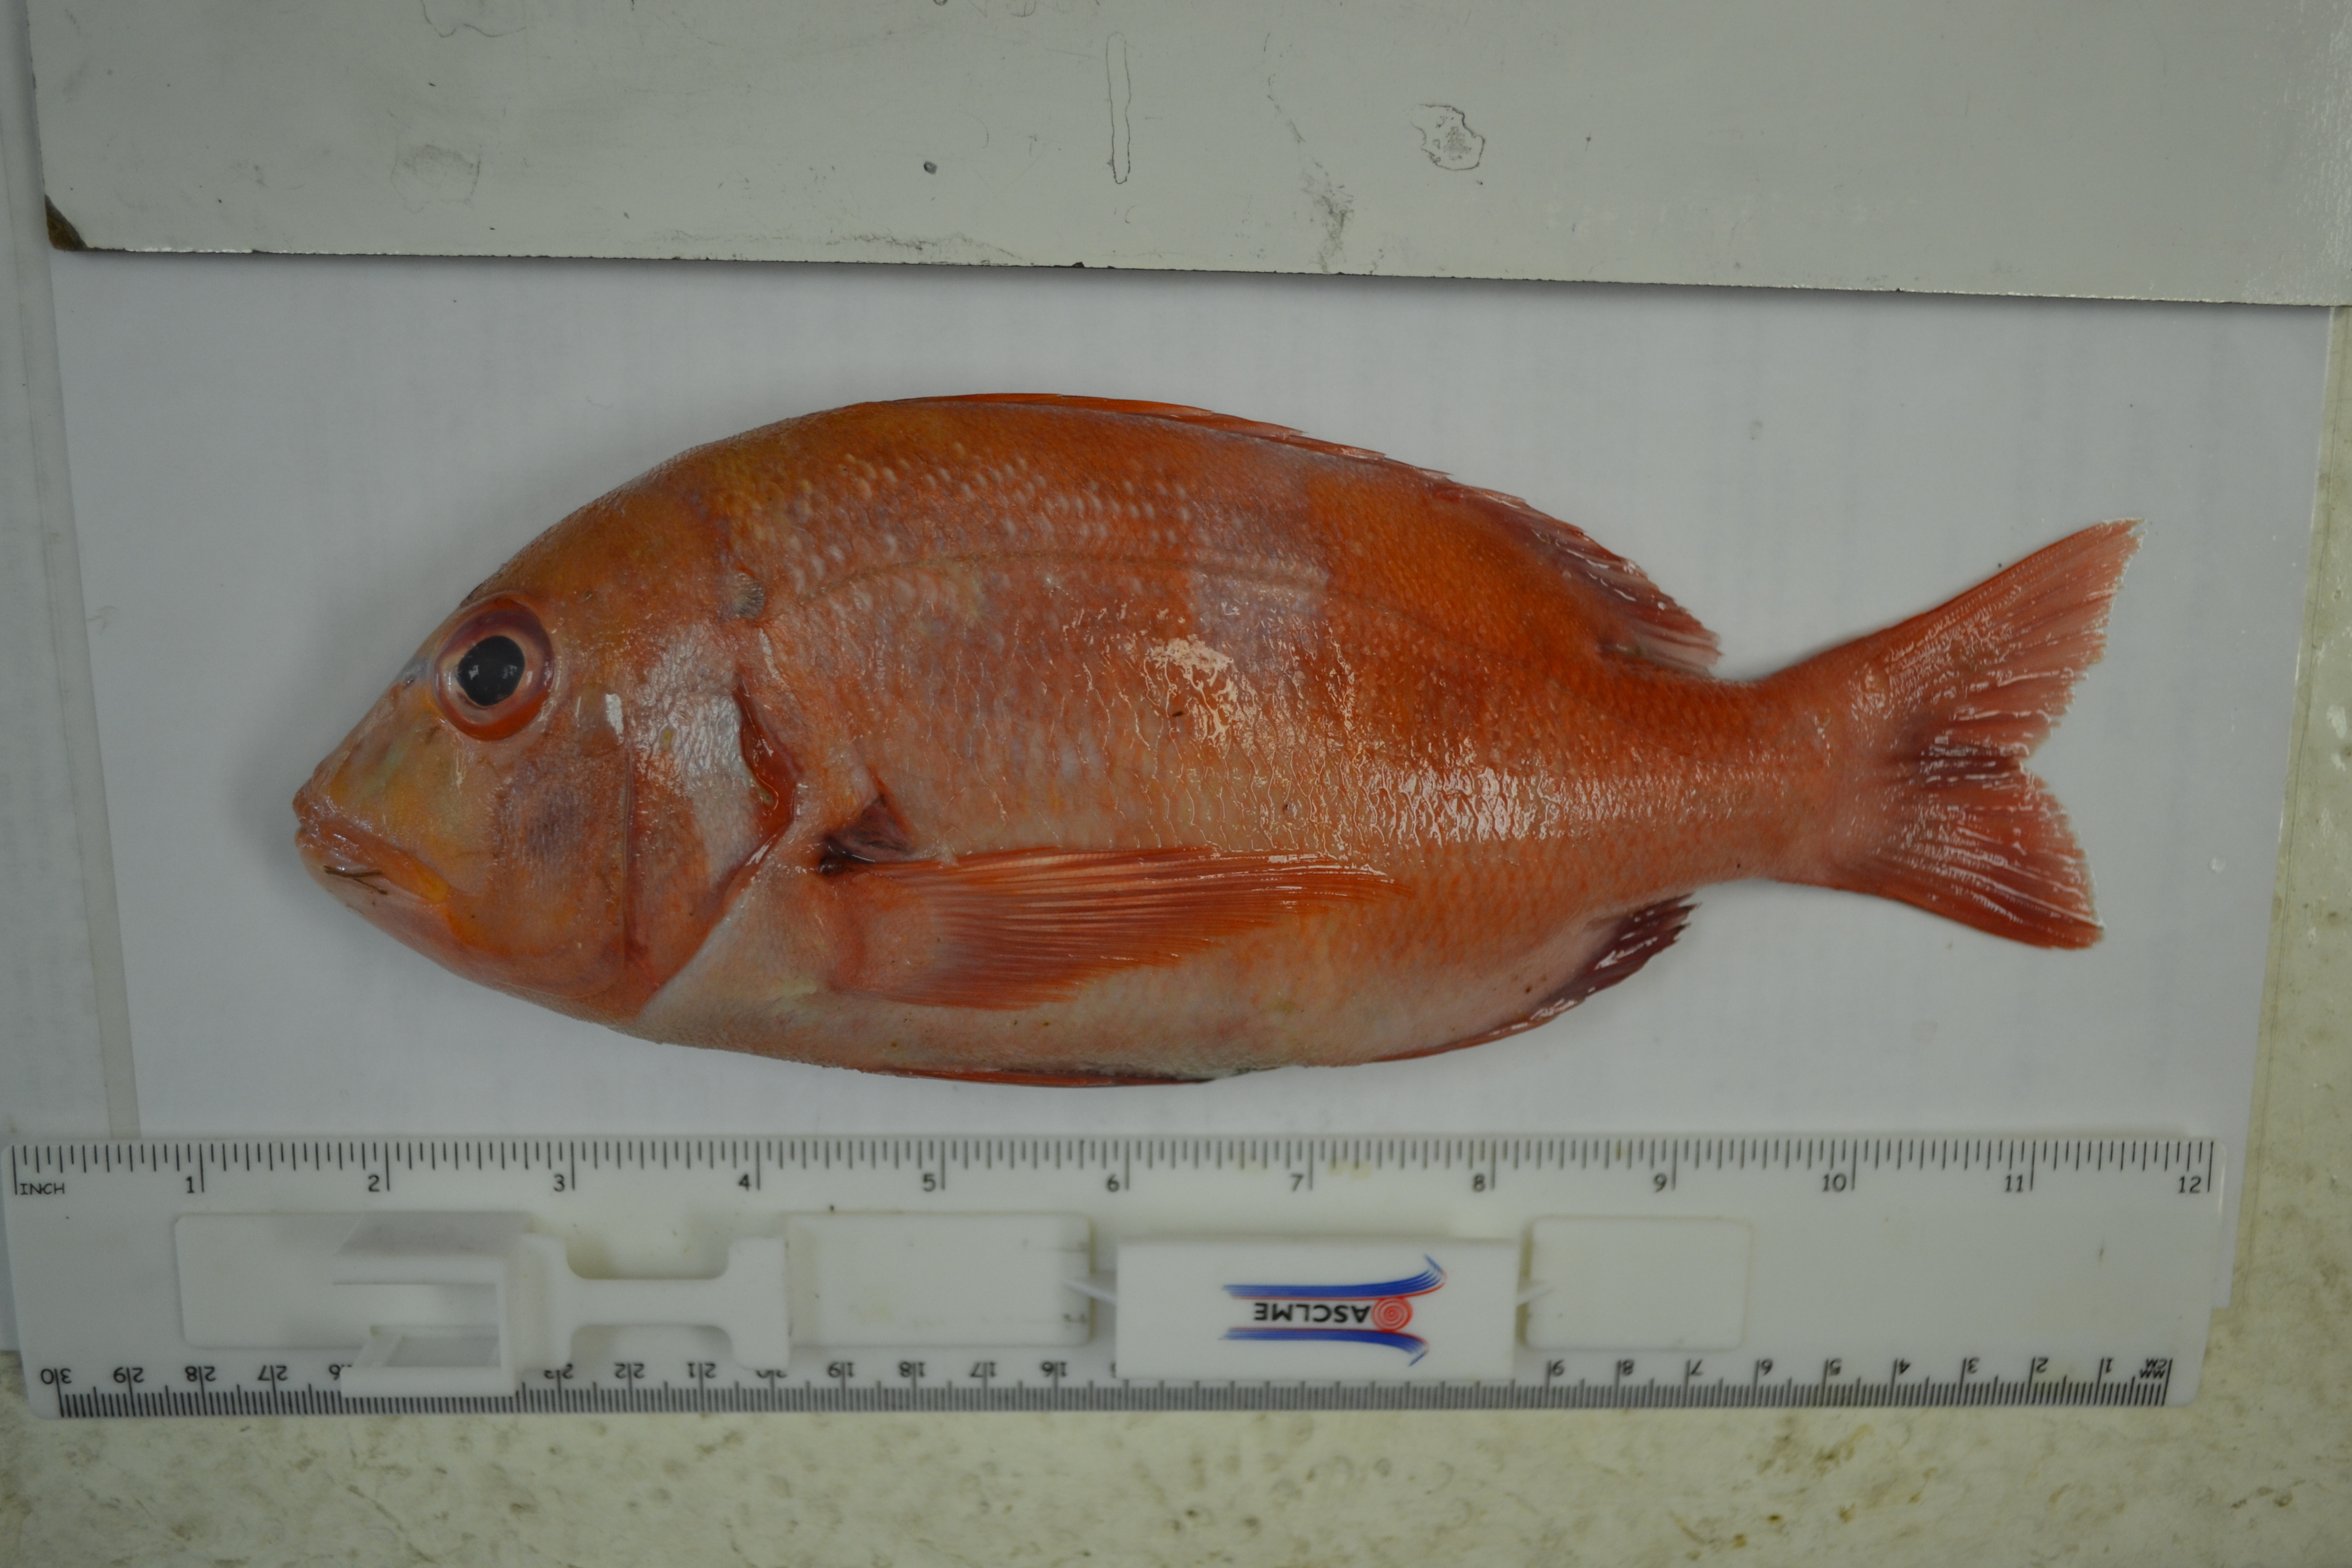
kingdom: Animalia
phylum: Chordata
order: Perciformes
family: Sparidae
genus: Chrysoblephus
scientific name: Chrysoblephus laticeps
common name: Roman seabream
